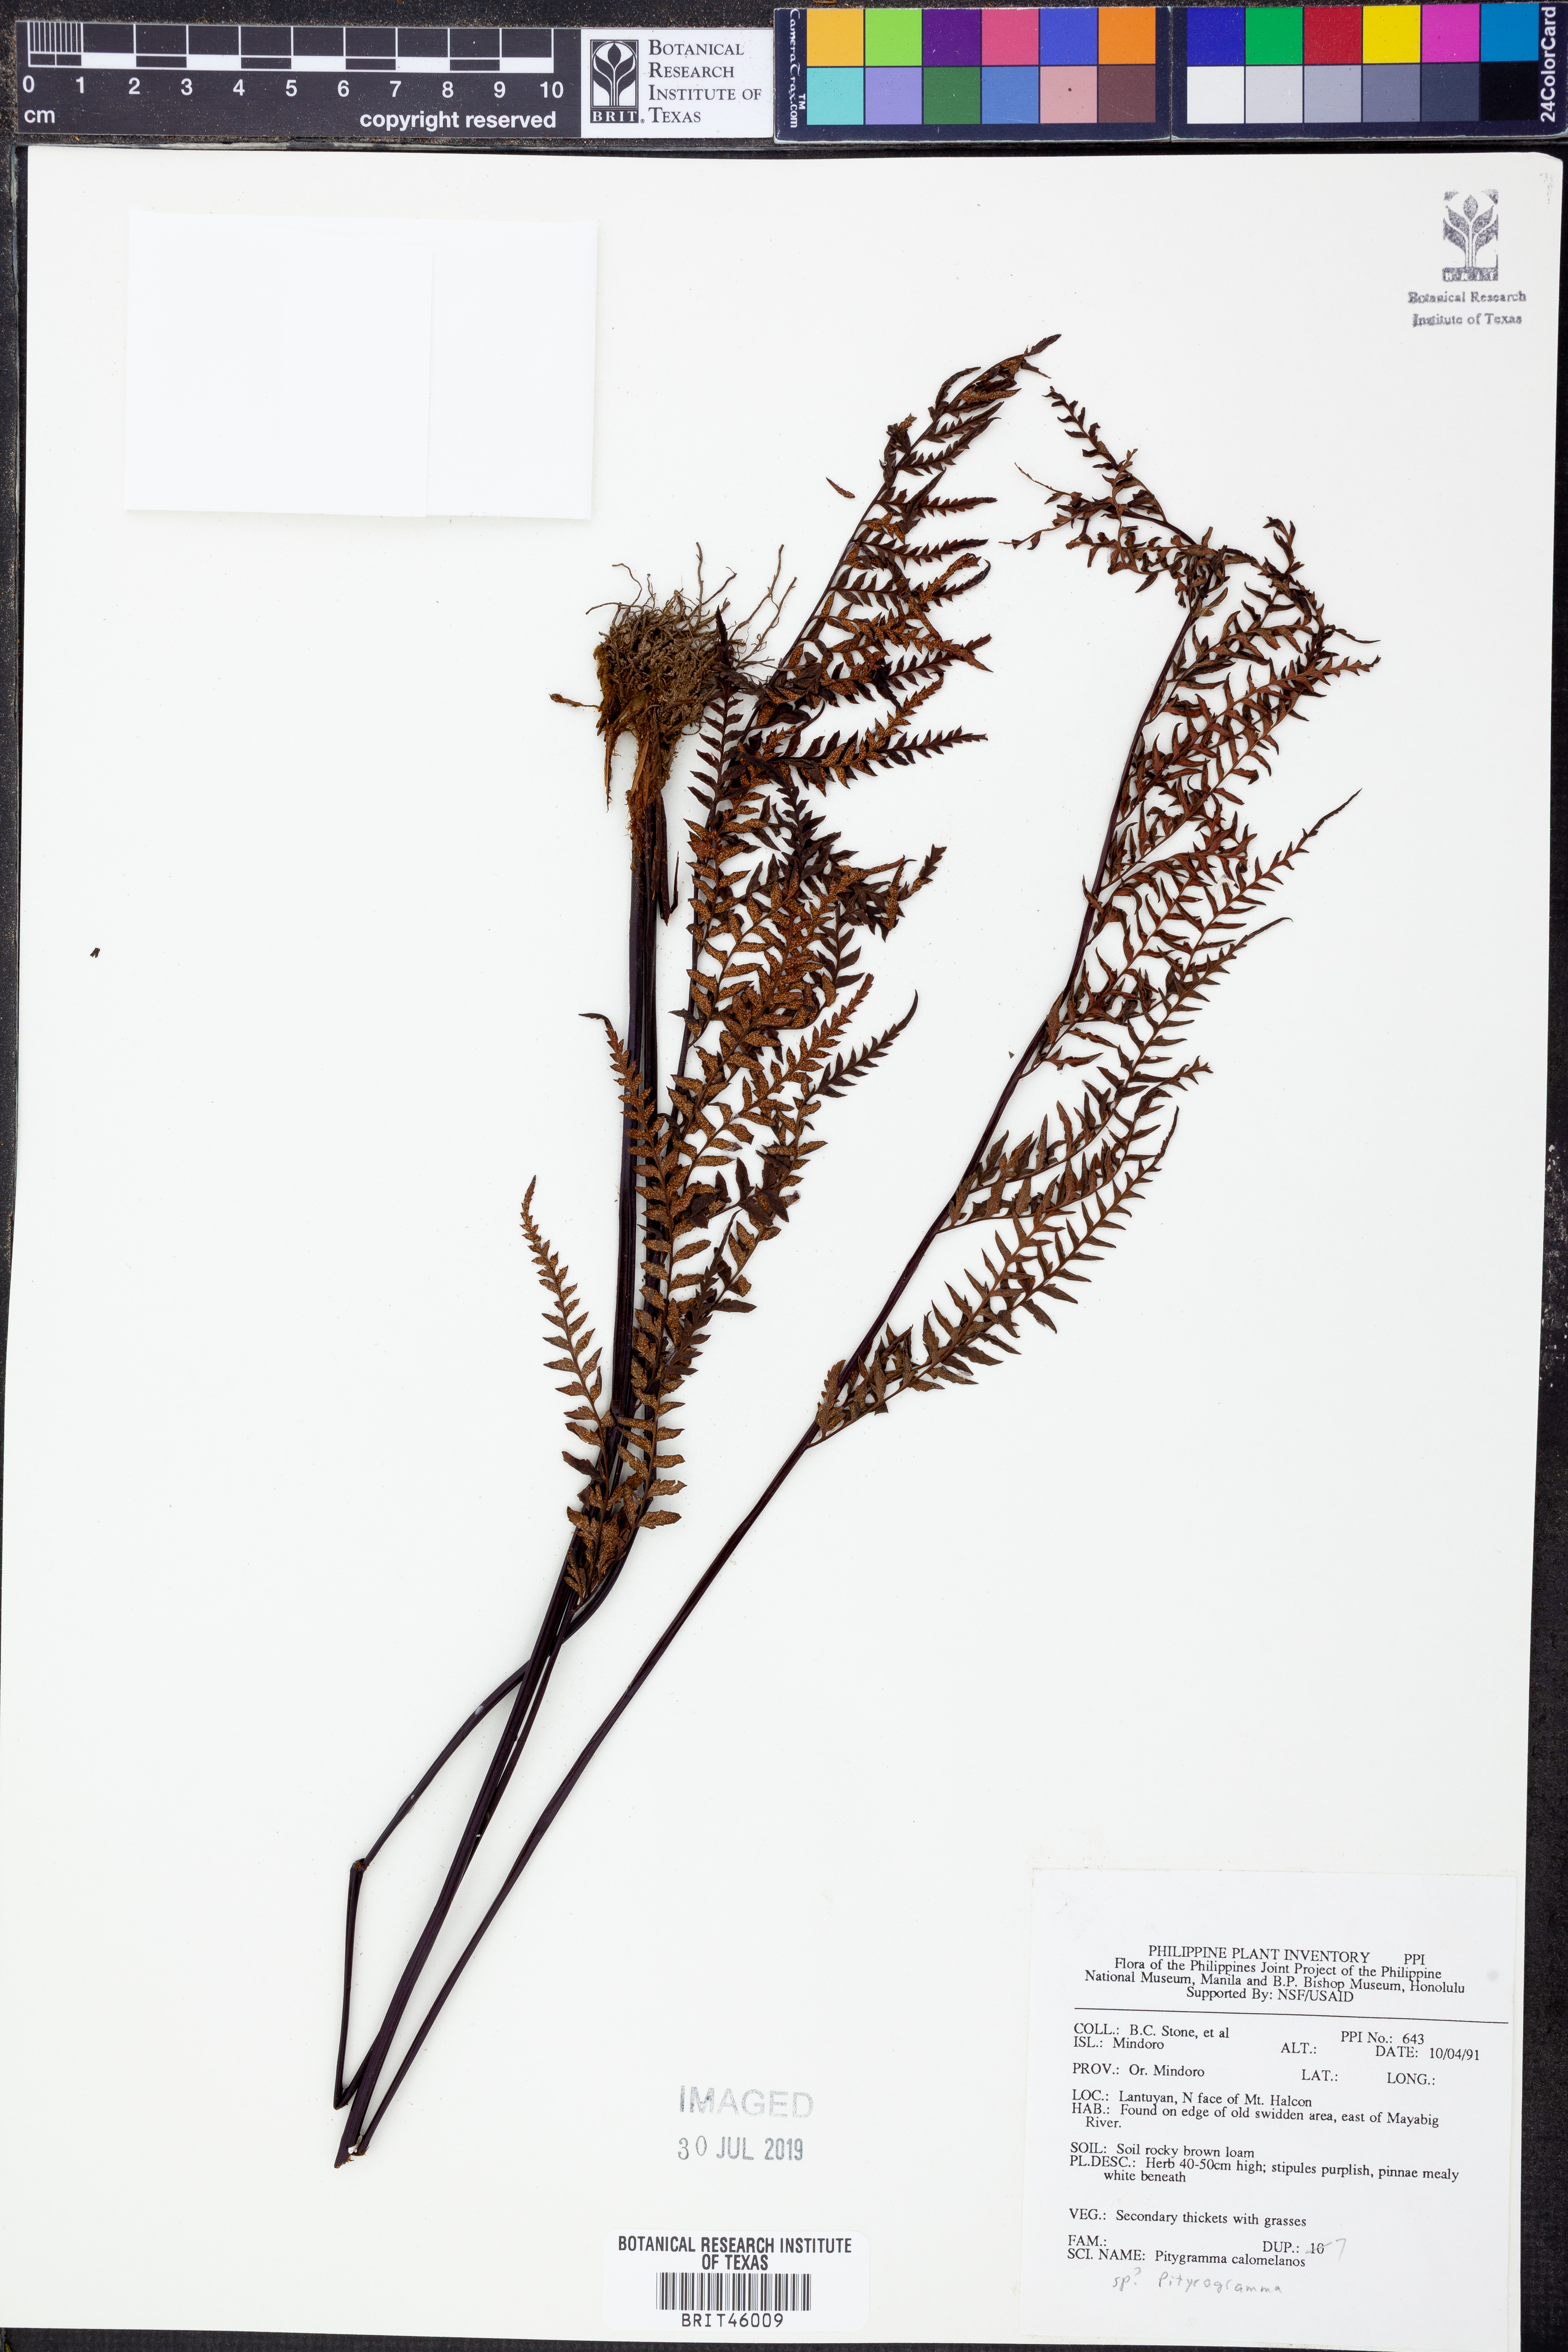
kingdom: Plantae
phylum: Tracheophyta
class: Polypodiopsida
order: Polypodiales
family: Pteridaceae
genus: Pityrogramma
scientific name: Pityrogramma calomelanos
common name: Dixie silverback fern
